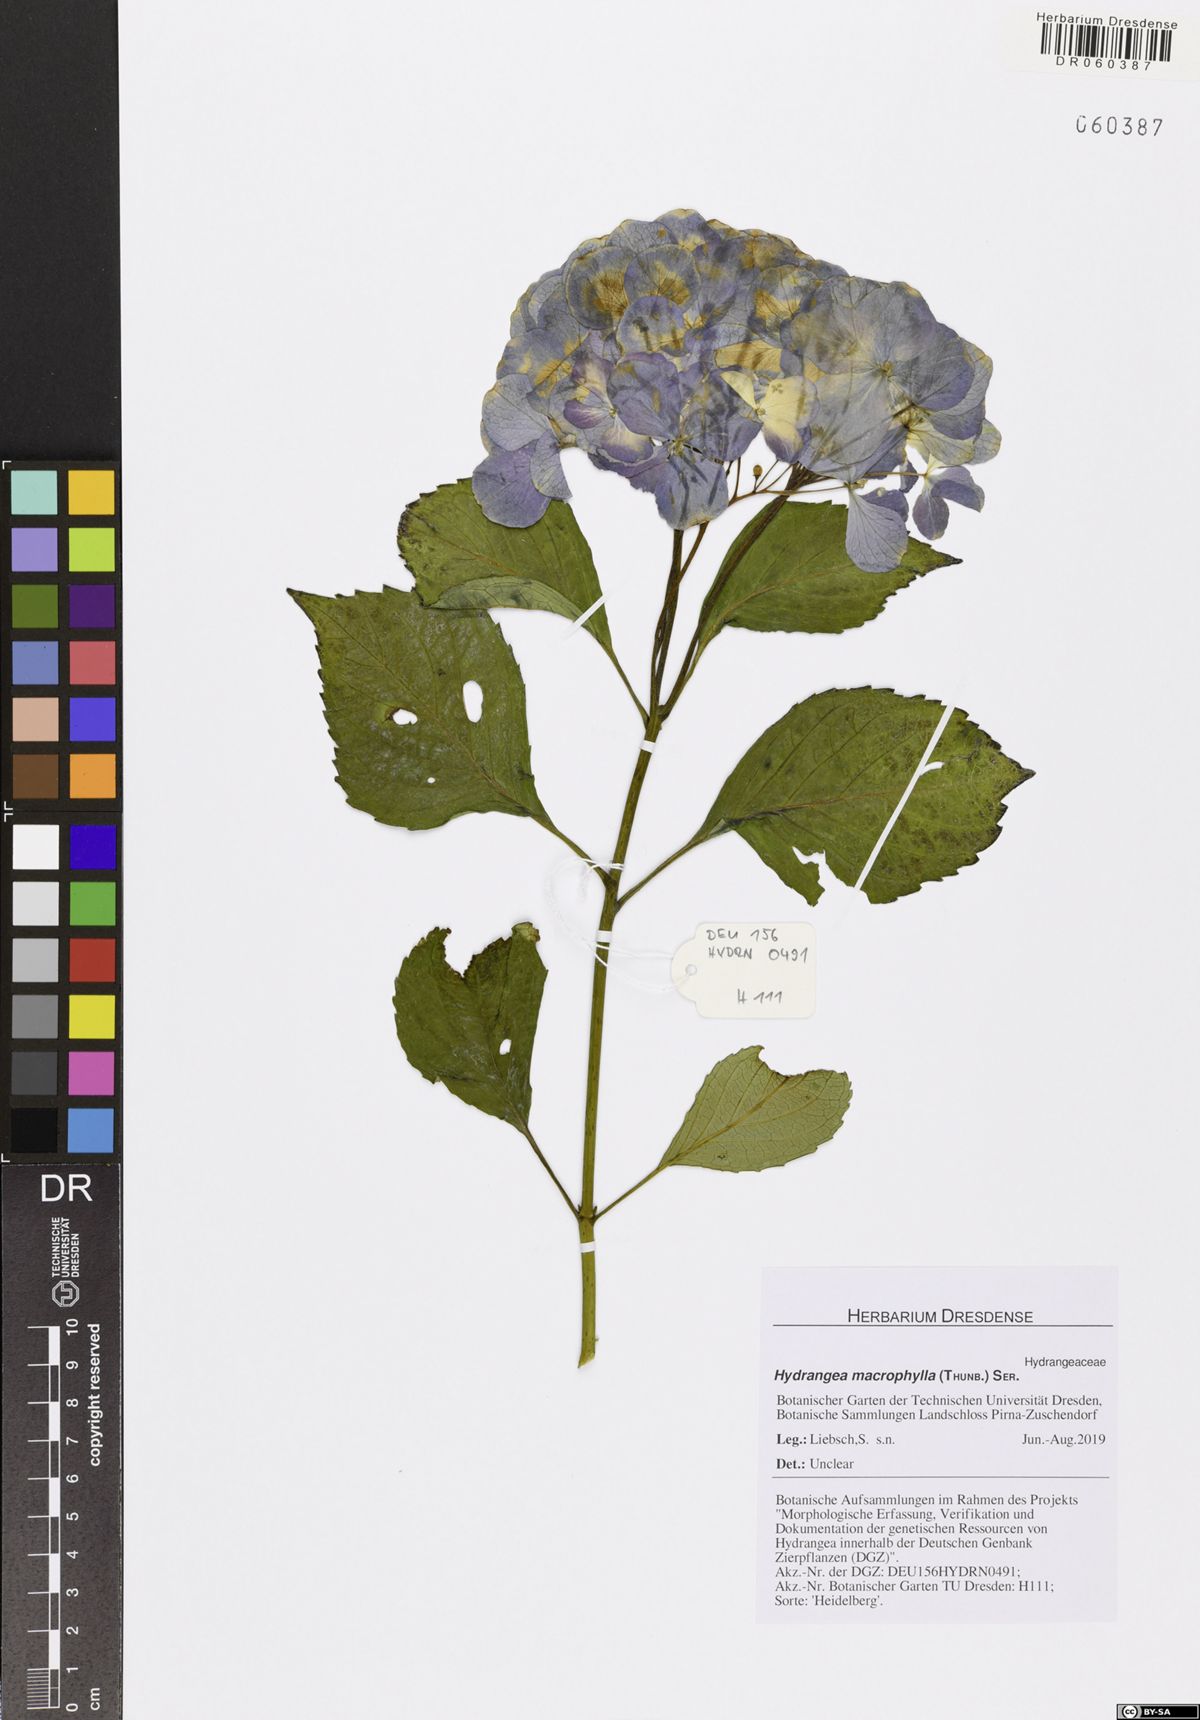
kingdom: Plantae
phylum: Tracheophyta
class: Magnoliopsida
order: Cornales
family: Hydrangeaceae
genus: Hydrangea
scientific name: Hydrangea macrophylla
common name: Hydrangea
